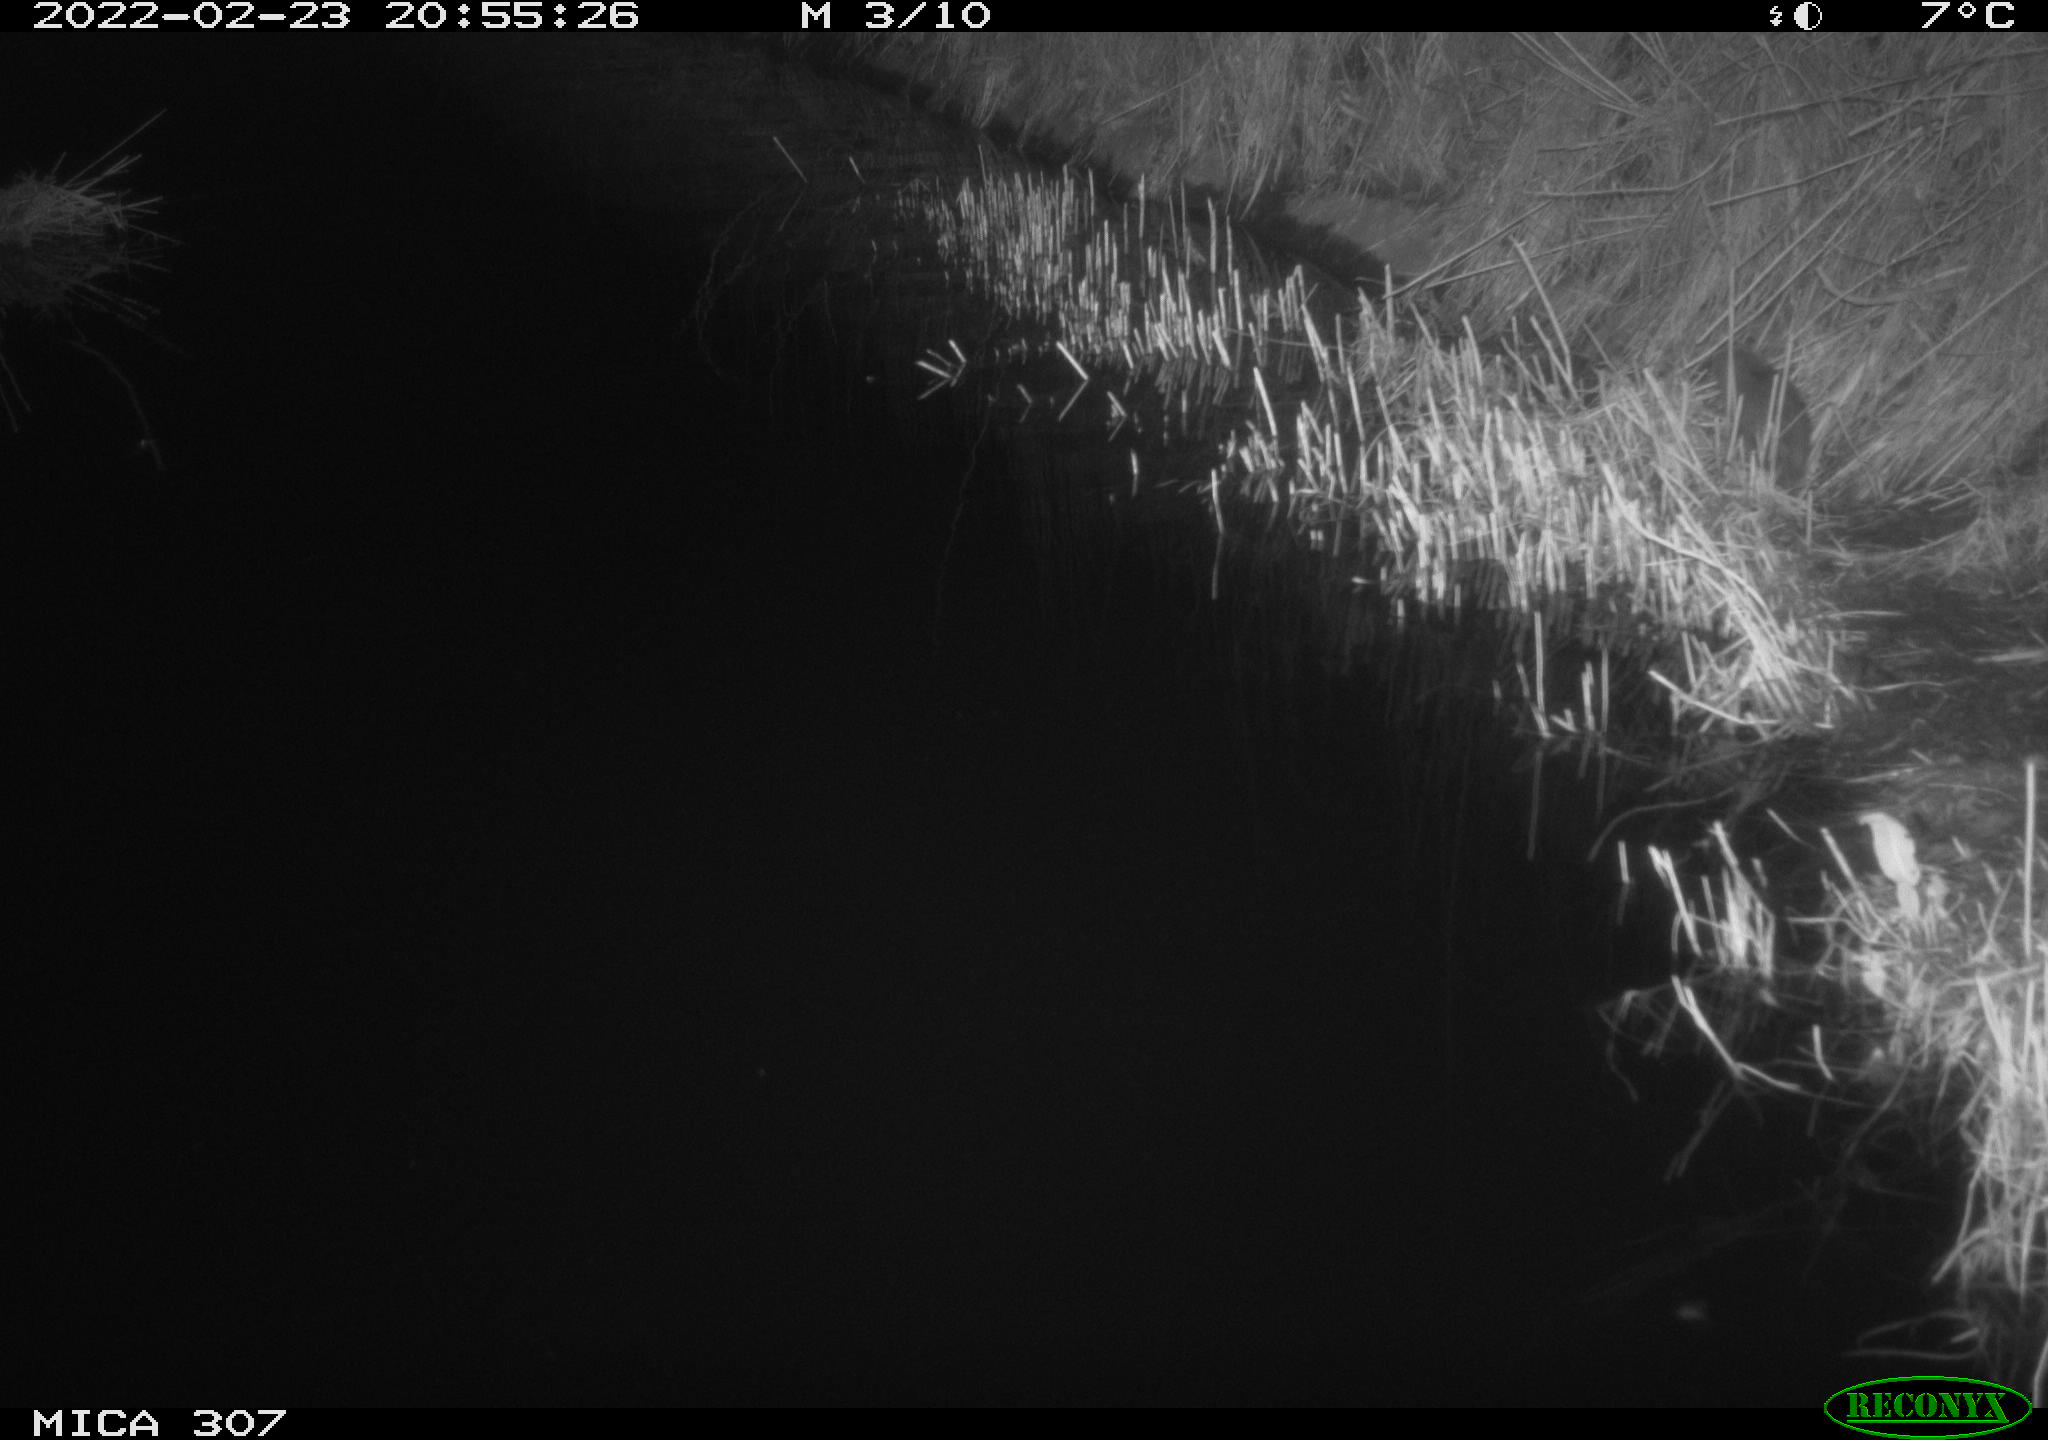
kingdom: Animalia
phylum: Chordata
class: Mammalia
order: Rodentia
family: Muridae
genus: Rattus
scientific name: Rattus norvegicus
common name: Brown rat
